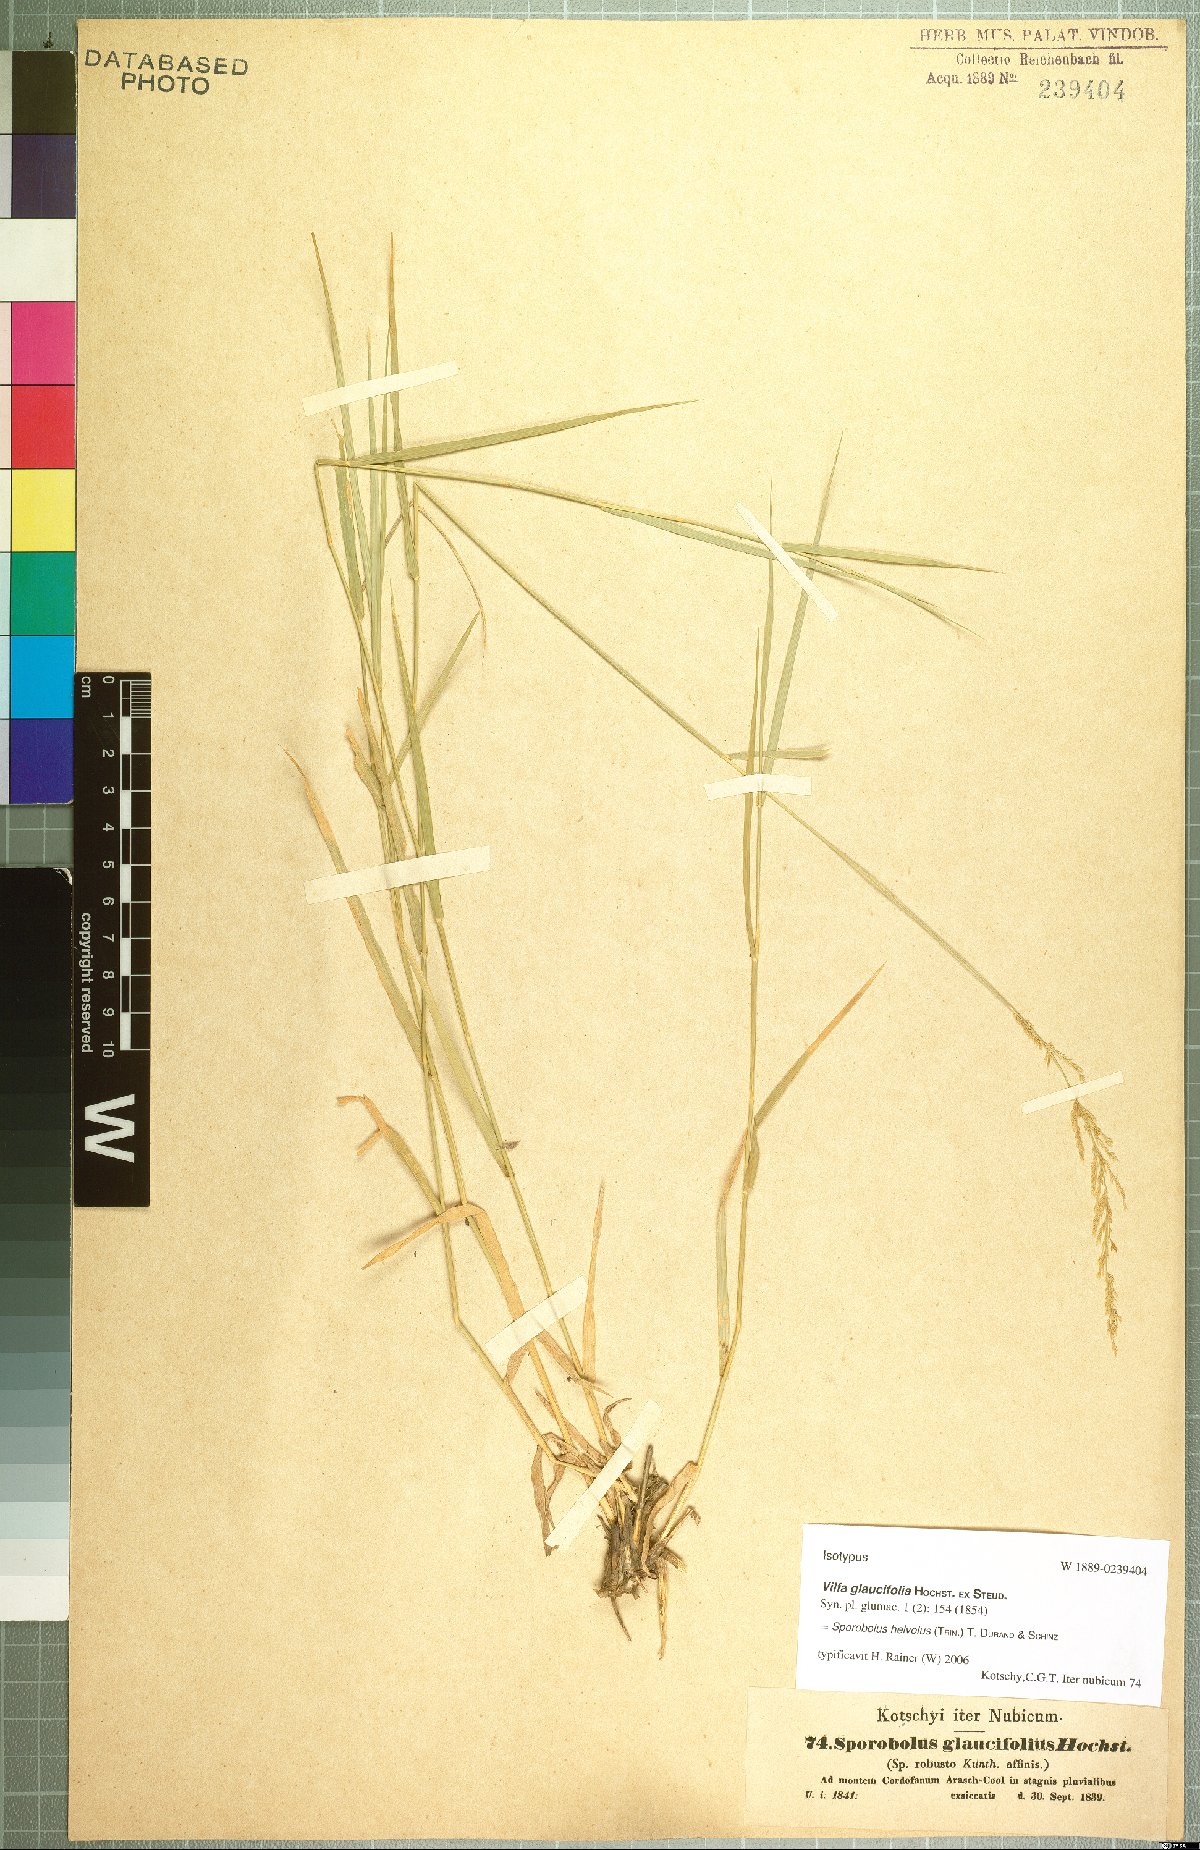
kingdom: Plantae
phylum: Tracheophyta
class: Liliopsida
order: Poales
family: Poaceae
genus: Sporobolus
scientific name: Sporobolus helvolus
